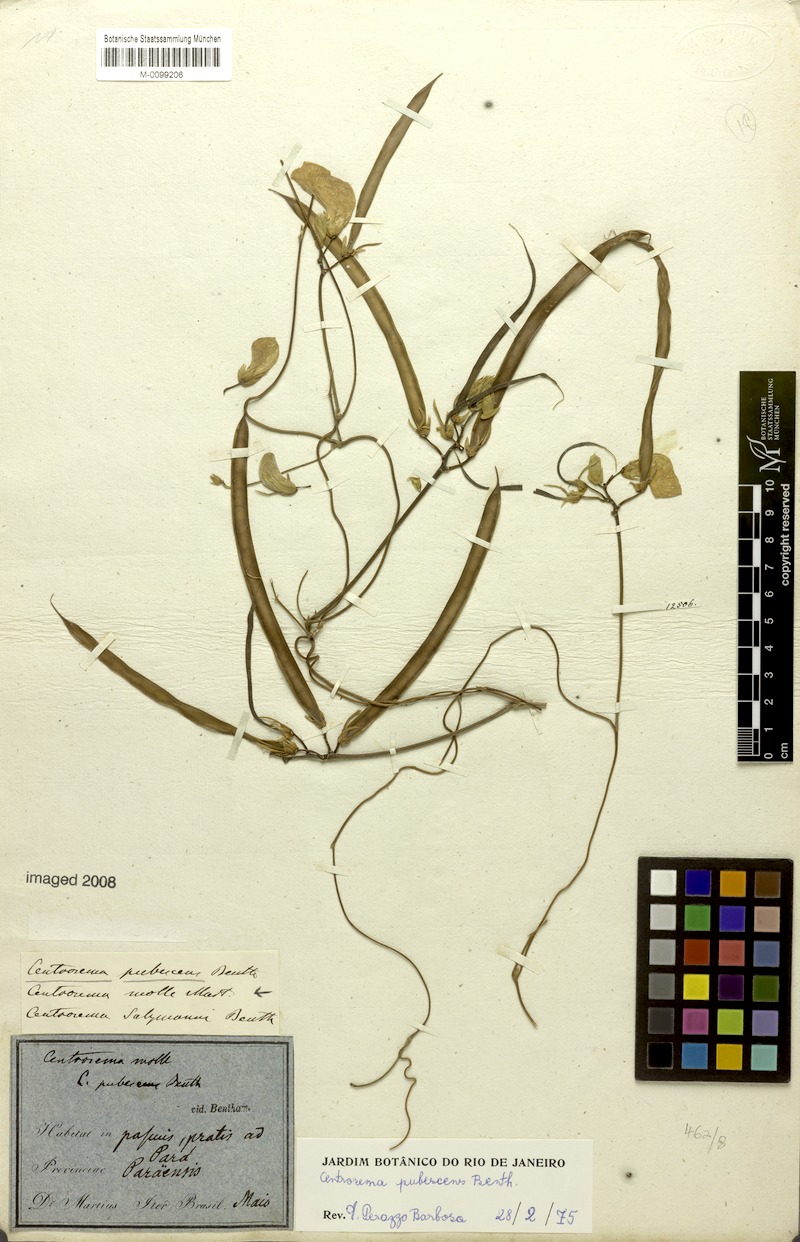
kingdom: Plantae
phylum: Tracheophyta
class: Magnoliopsida
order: Fabales
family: Fabaceae
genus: Centrosema
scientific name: Centrosema molle
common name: Soft butterfly pea
